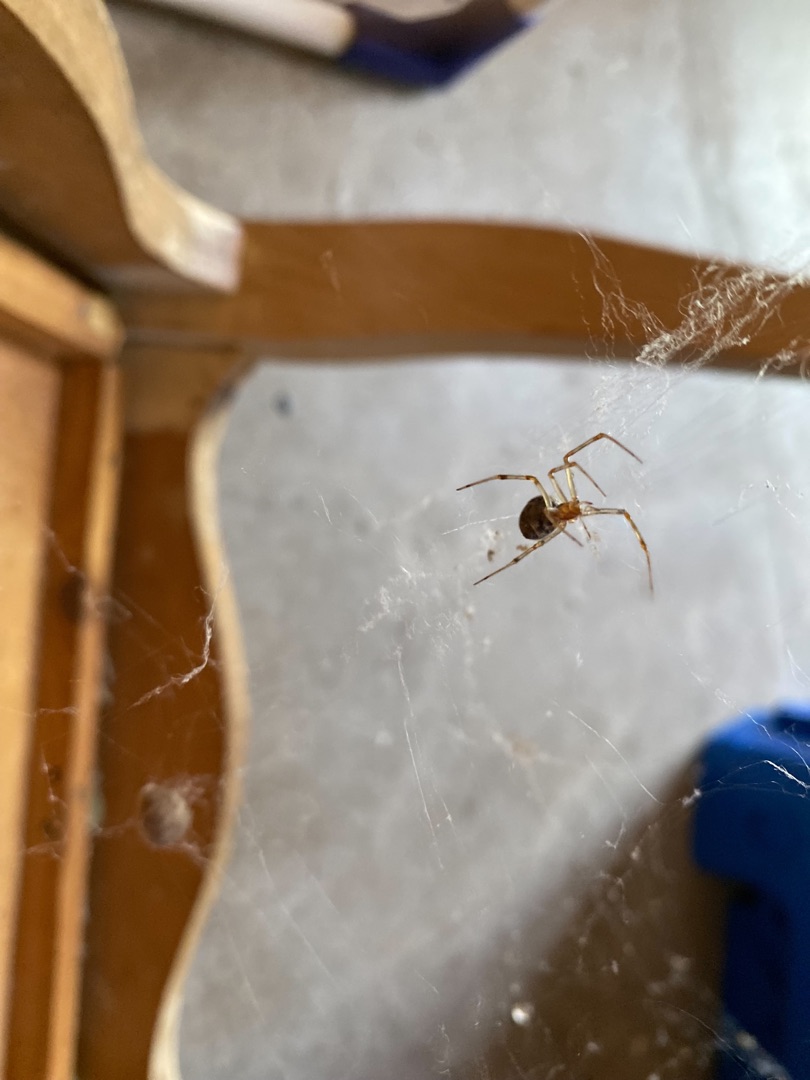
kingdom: Animalia
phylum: Arthropoda
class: Arachnida
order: Araneae
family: Theridiidae
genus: Parasteatoda
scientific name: Parasteatoda tepidariorum
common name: Væksthusspinder
